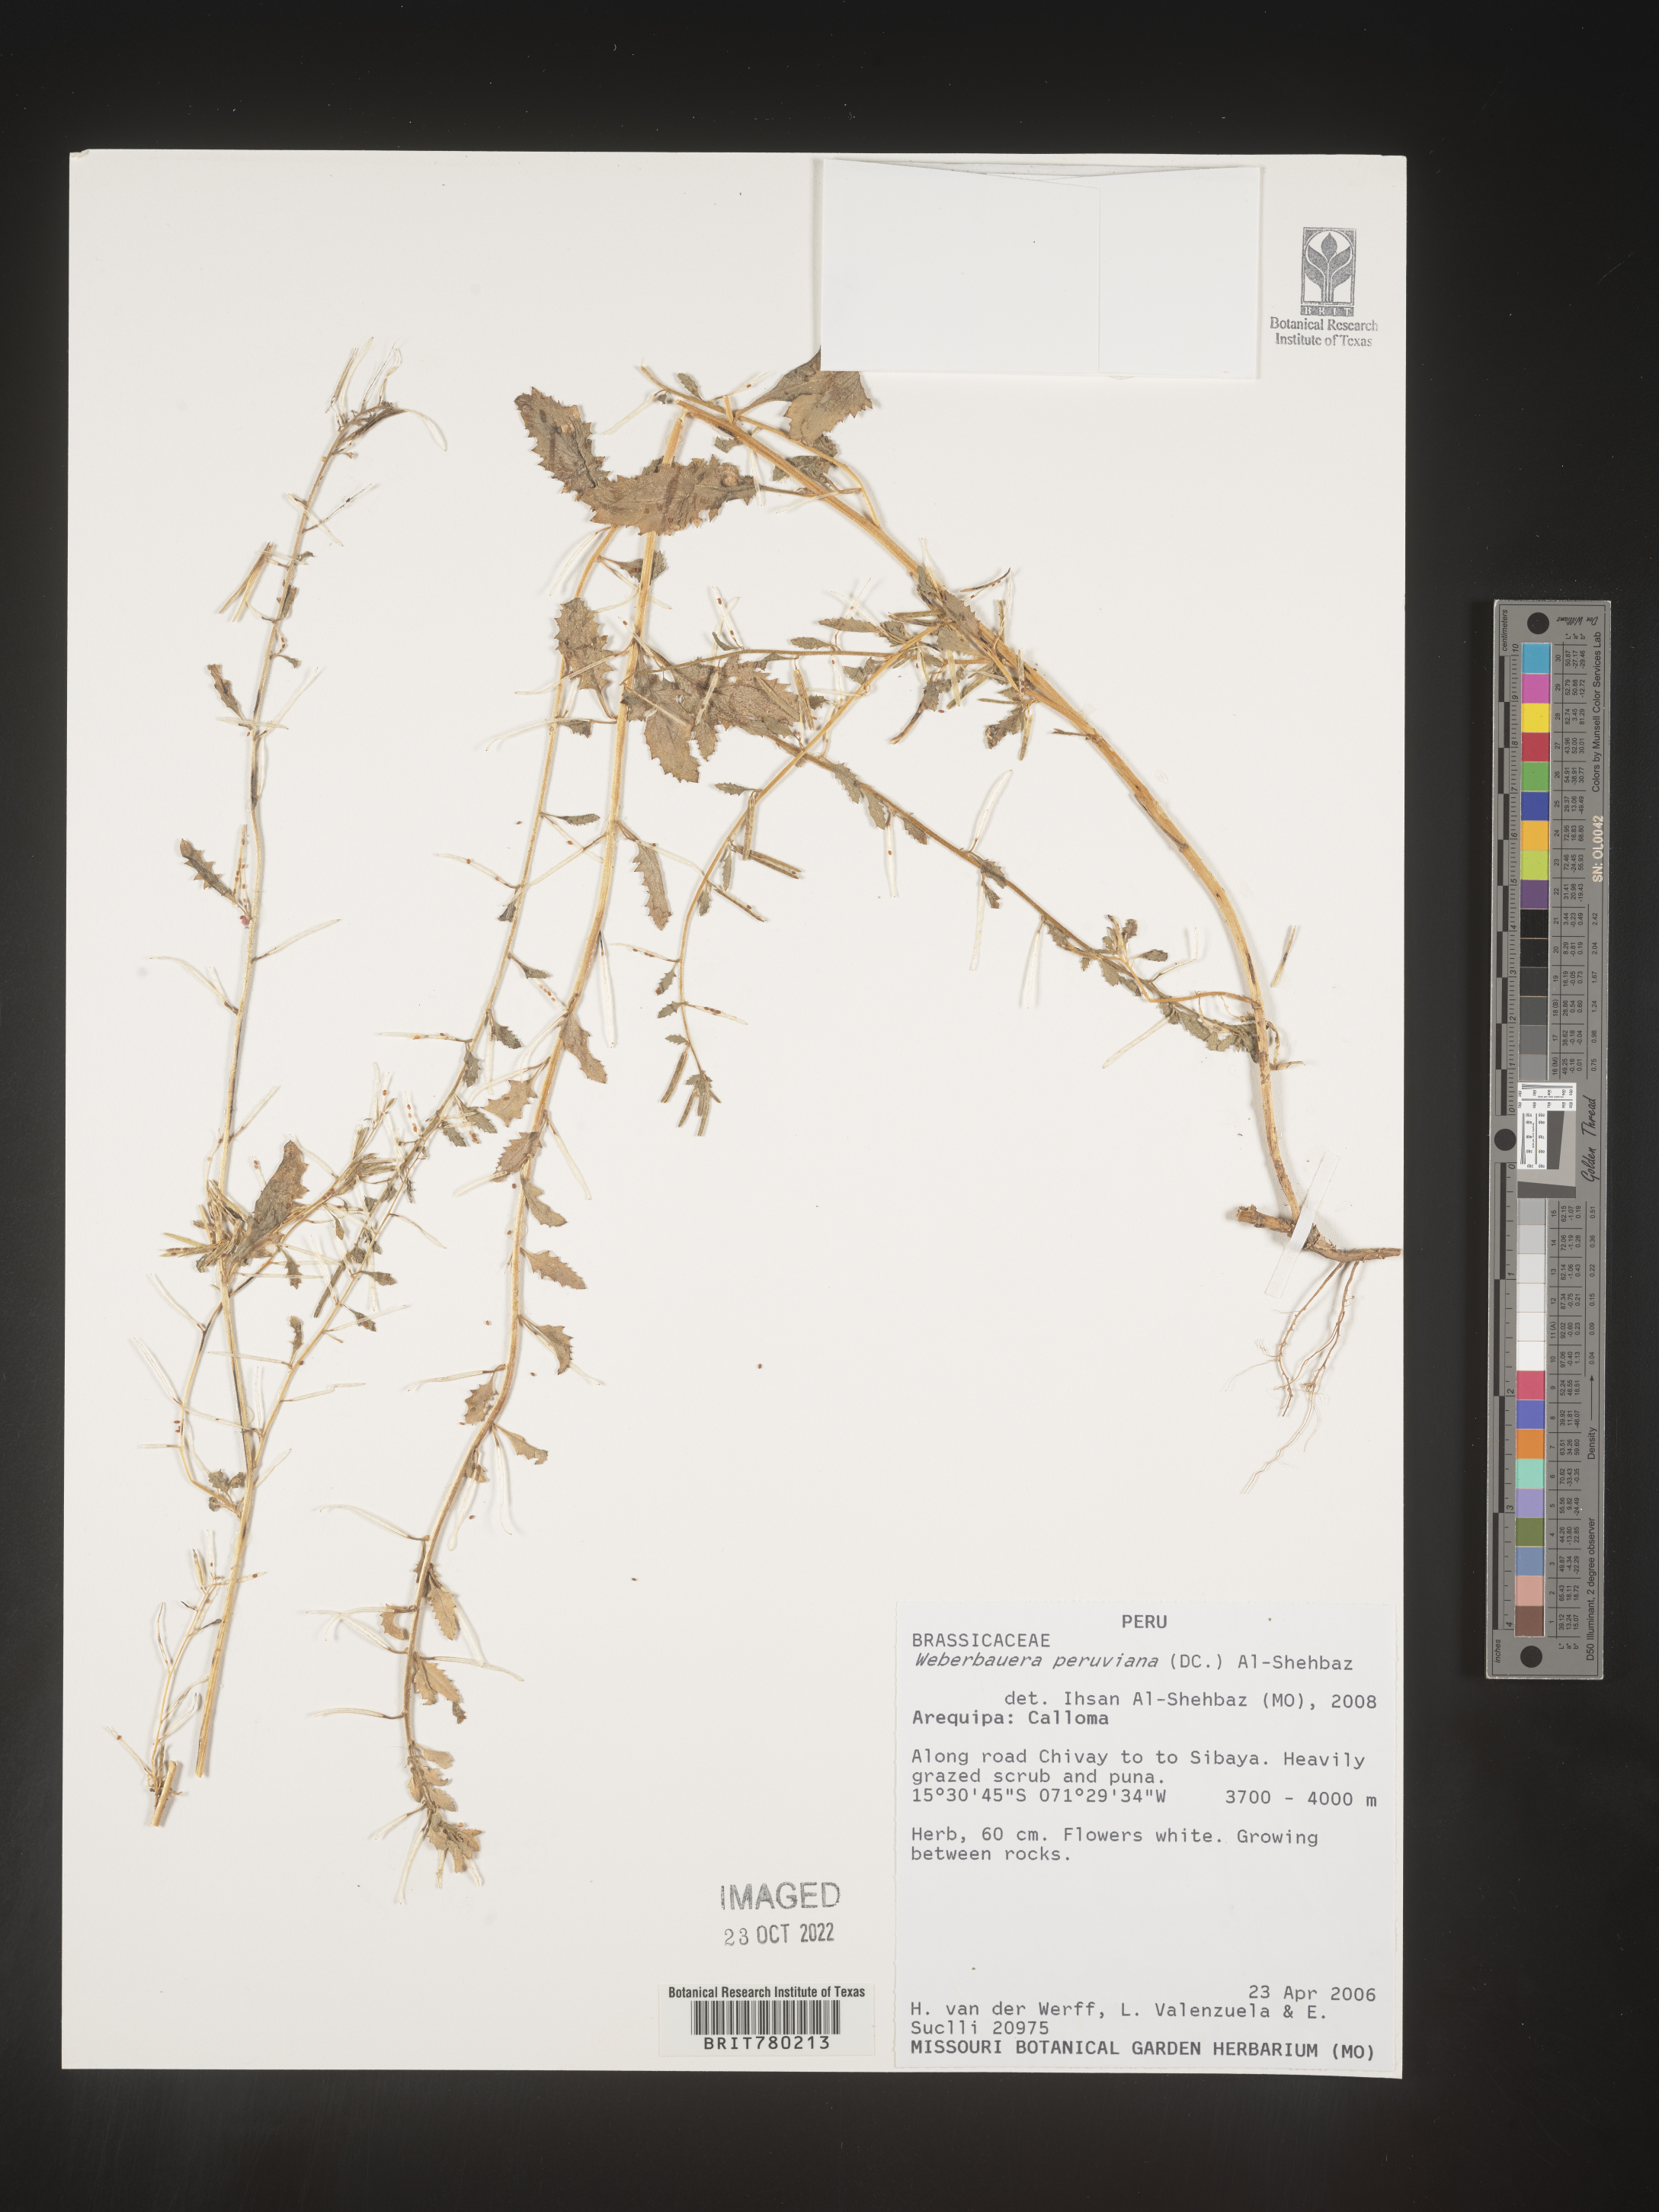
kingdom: Plantae
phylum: Tracheophyta
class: Magnoliopsida
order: Brassicales
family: Brassicaceae
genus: Weberbauera
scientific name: Weberbauera
